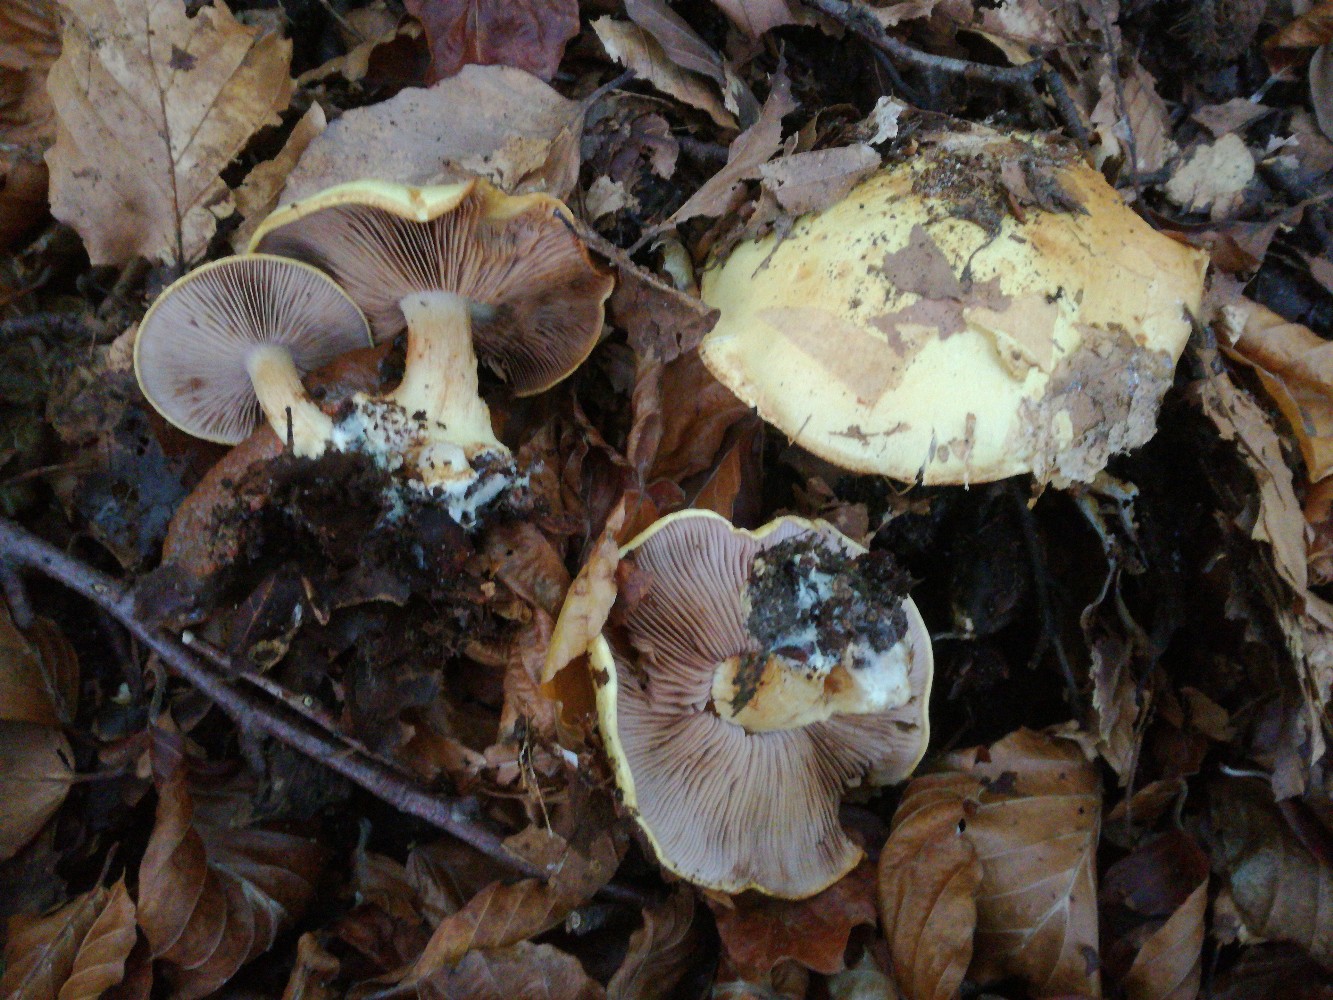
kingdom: Fungi
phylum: Basidiomycota
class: Agaricomycetes
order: Agaricales
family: Cortinariaceae
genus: Calonarius
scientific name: Calonarius callochrous
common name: lillabladet slørhat
